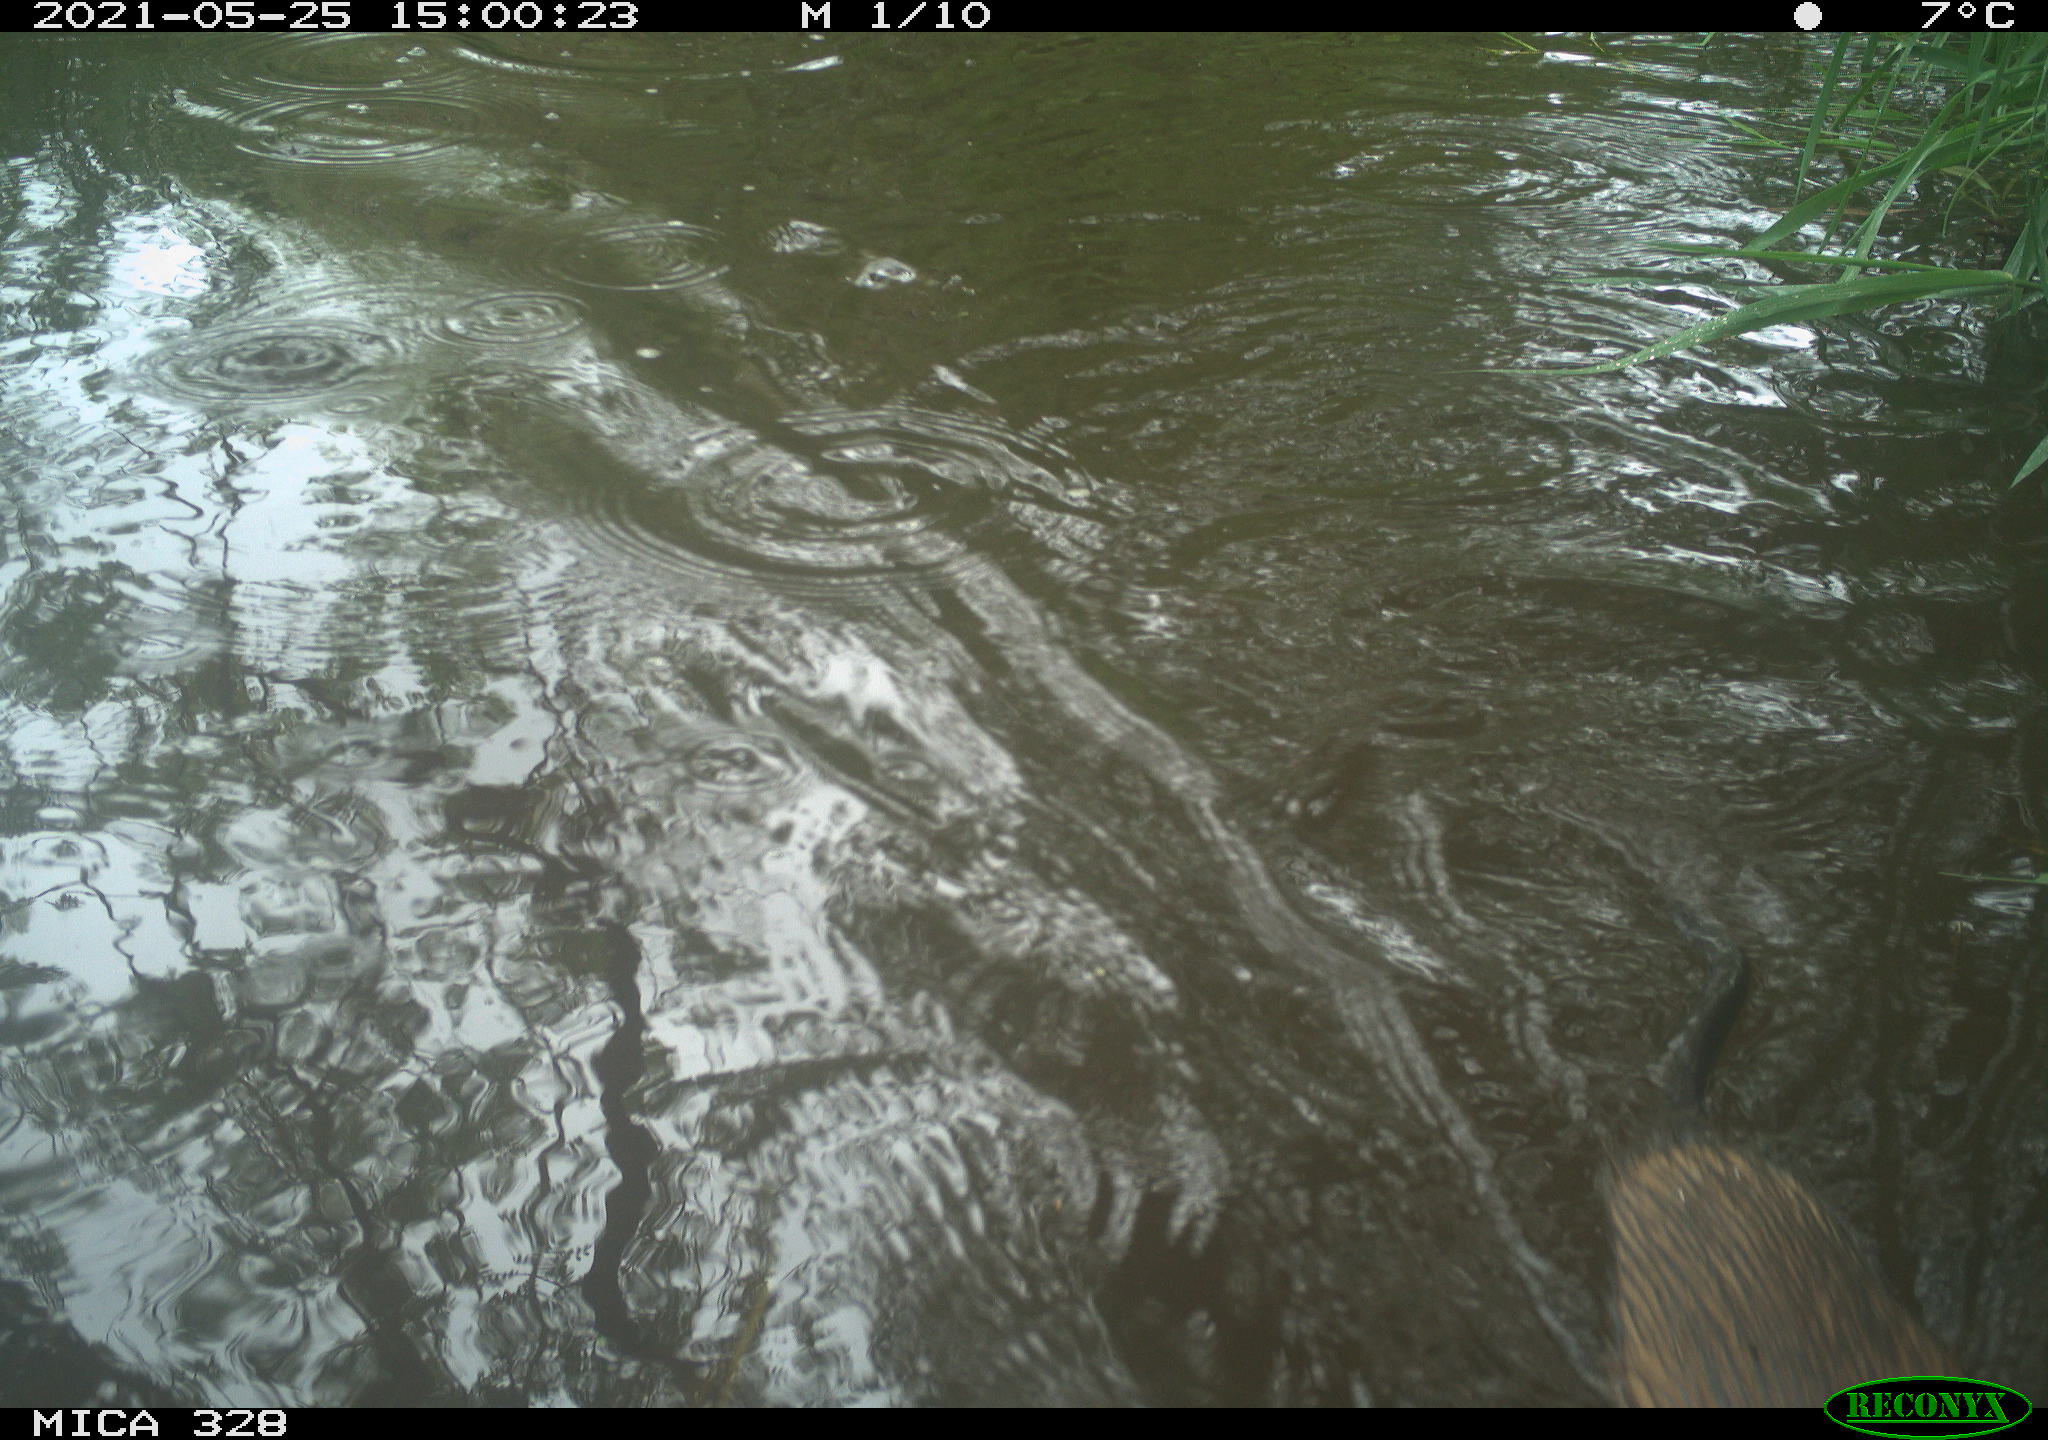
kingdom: Animalia
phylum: Chordata
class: Mammalia
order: Rodentia
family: Cricetidae
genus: Ondatra
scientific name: Ondatra zibethicus
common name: Muskrat
